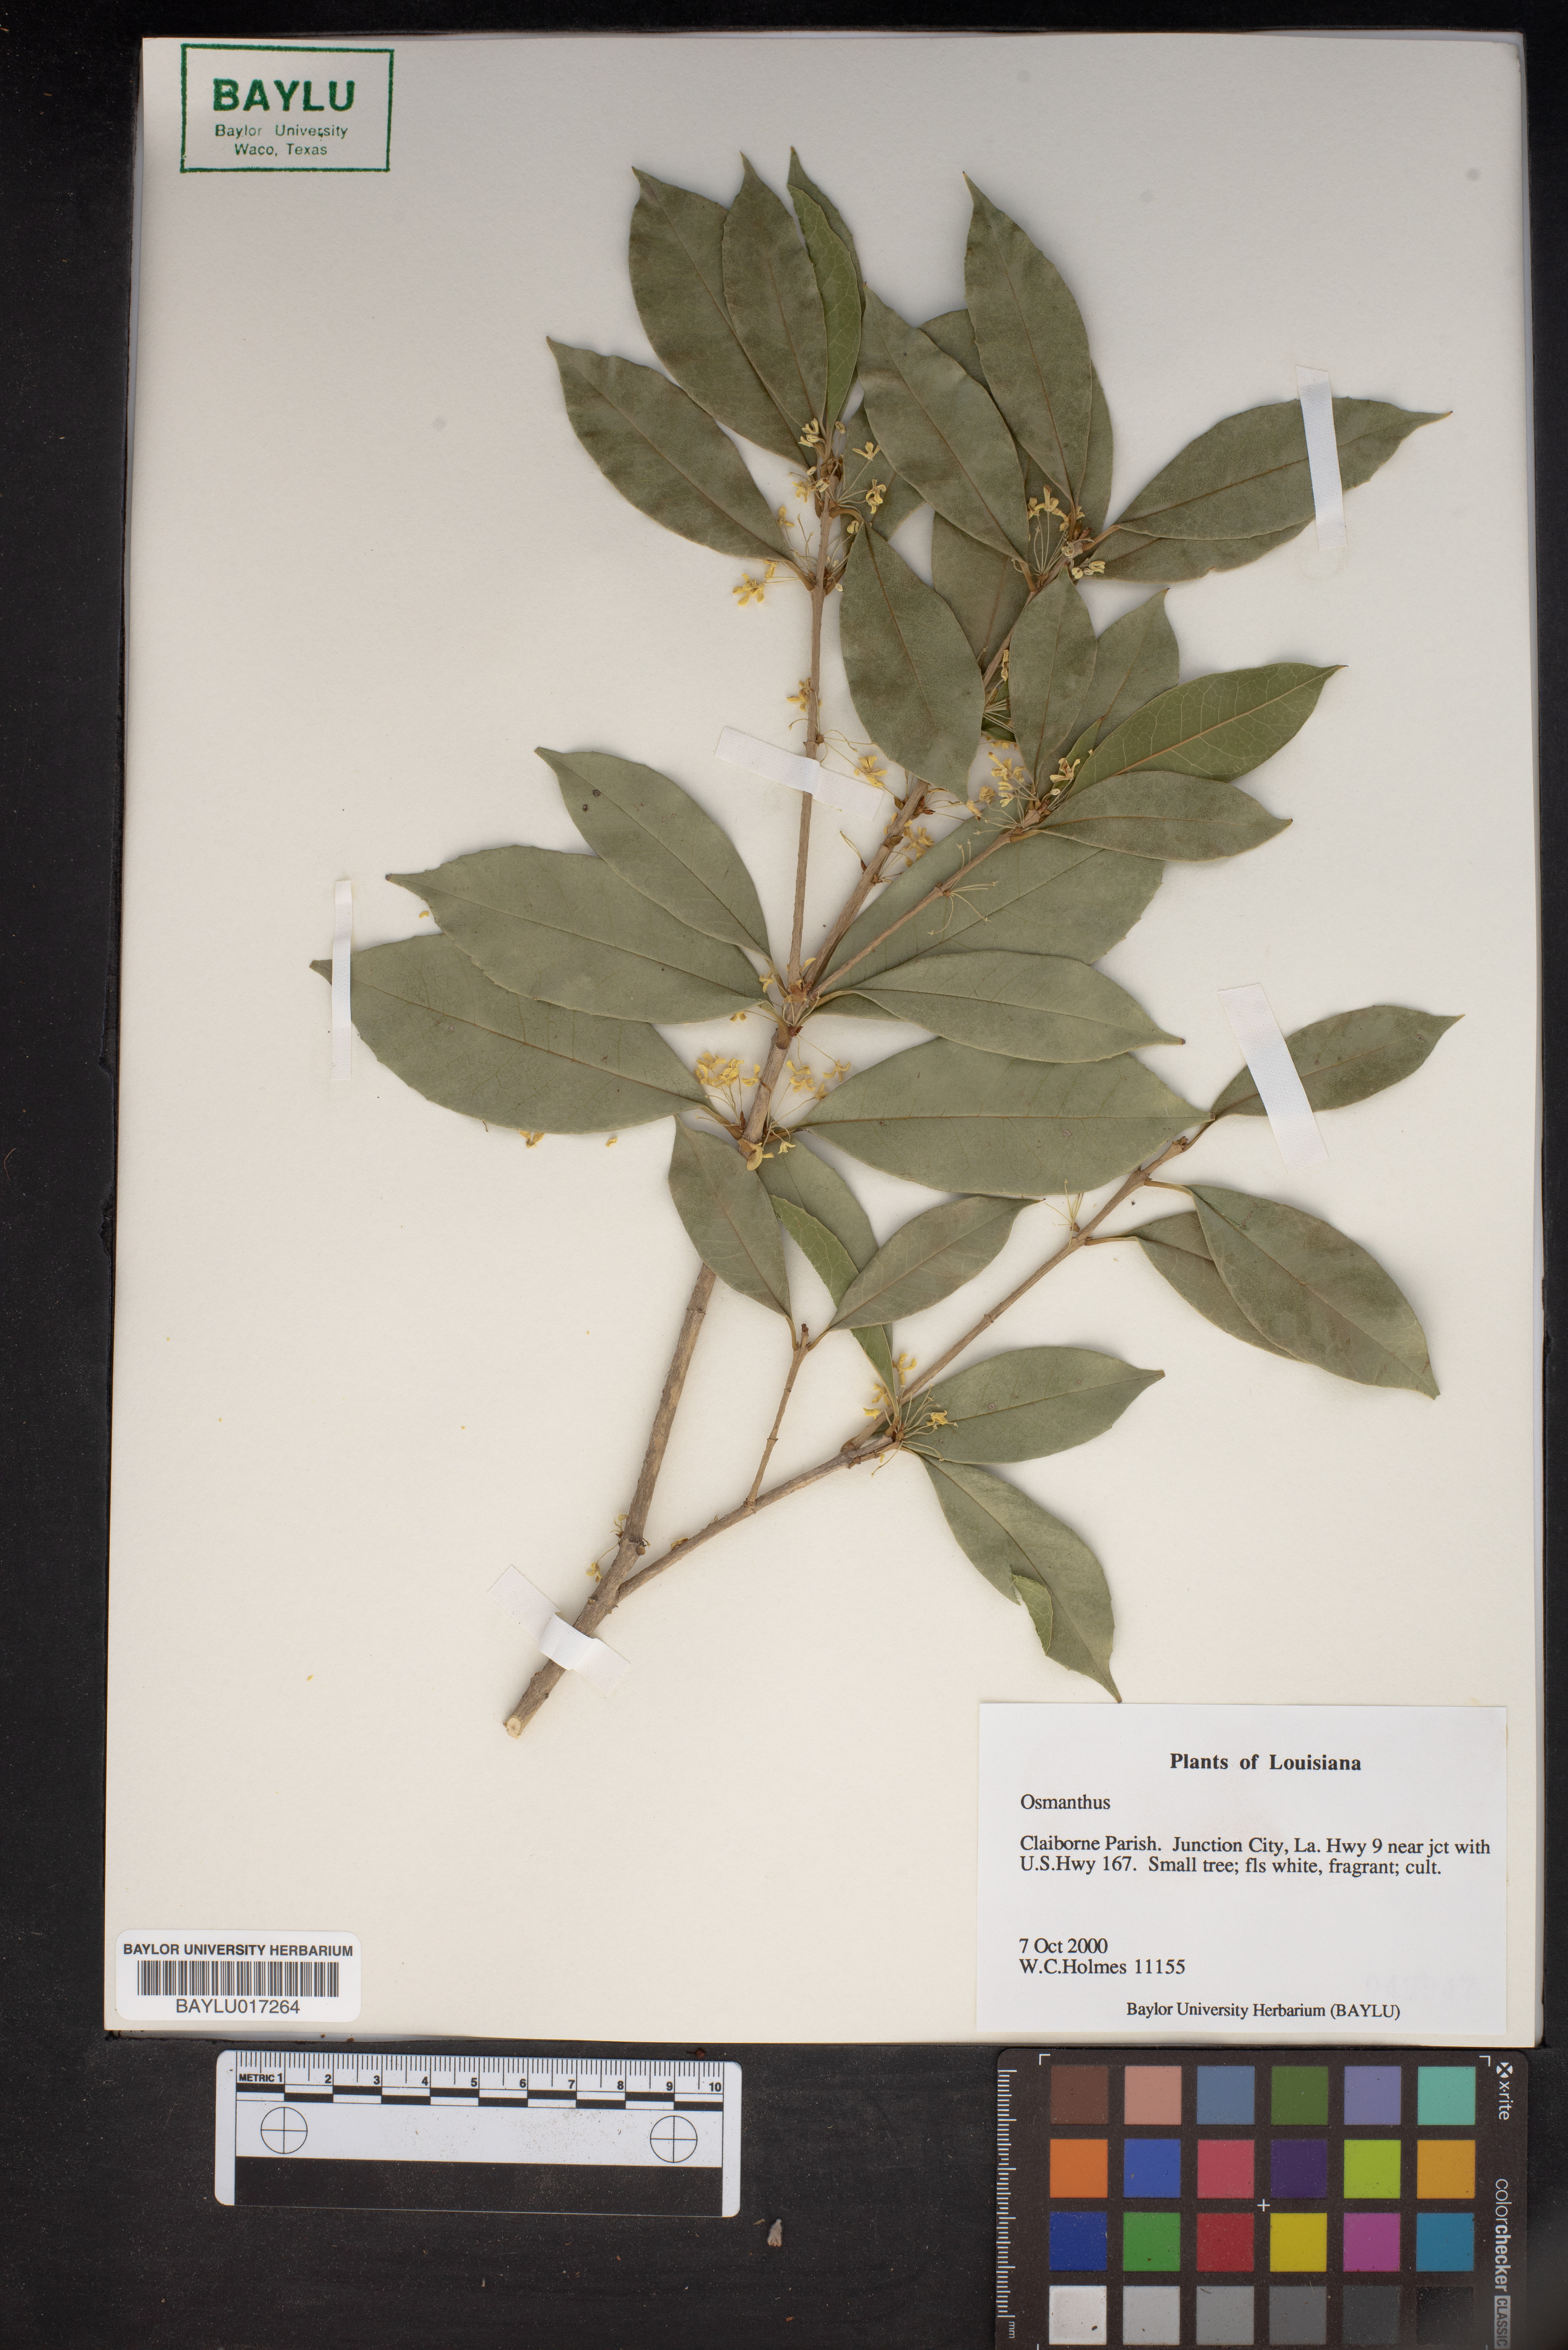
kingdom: Plantae
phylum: Tracheophyta
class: Magnoliopsida
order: Lamiales
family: Oleaceae
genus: Osmanthus
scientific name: Osmanthus
